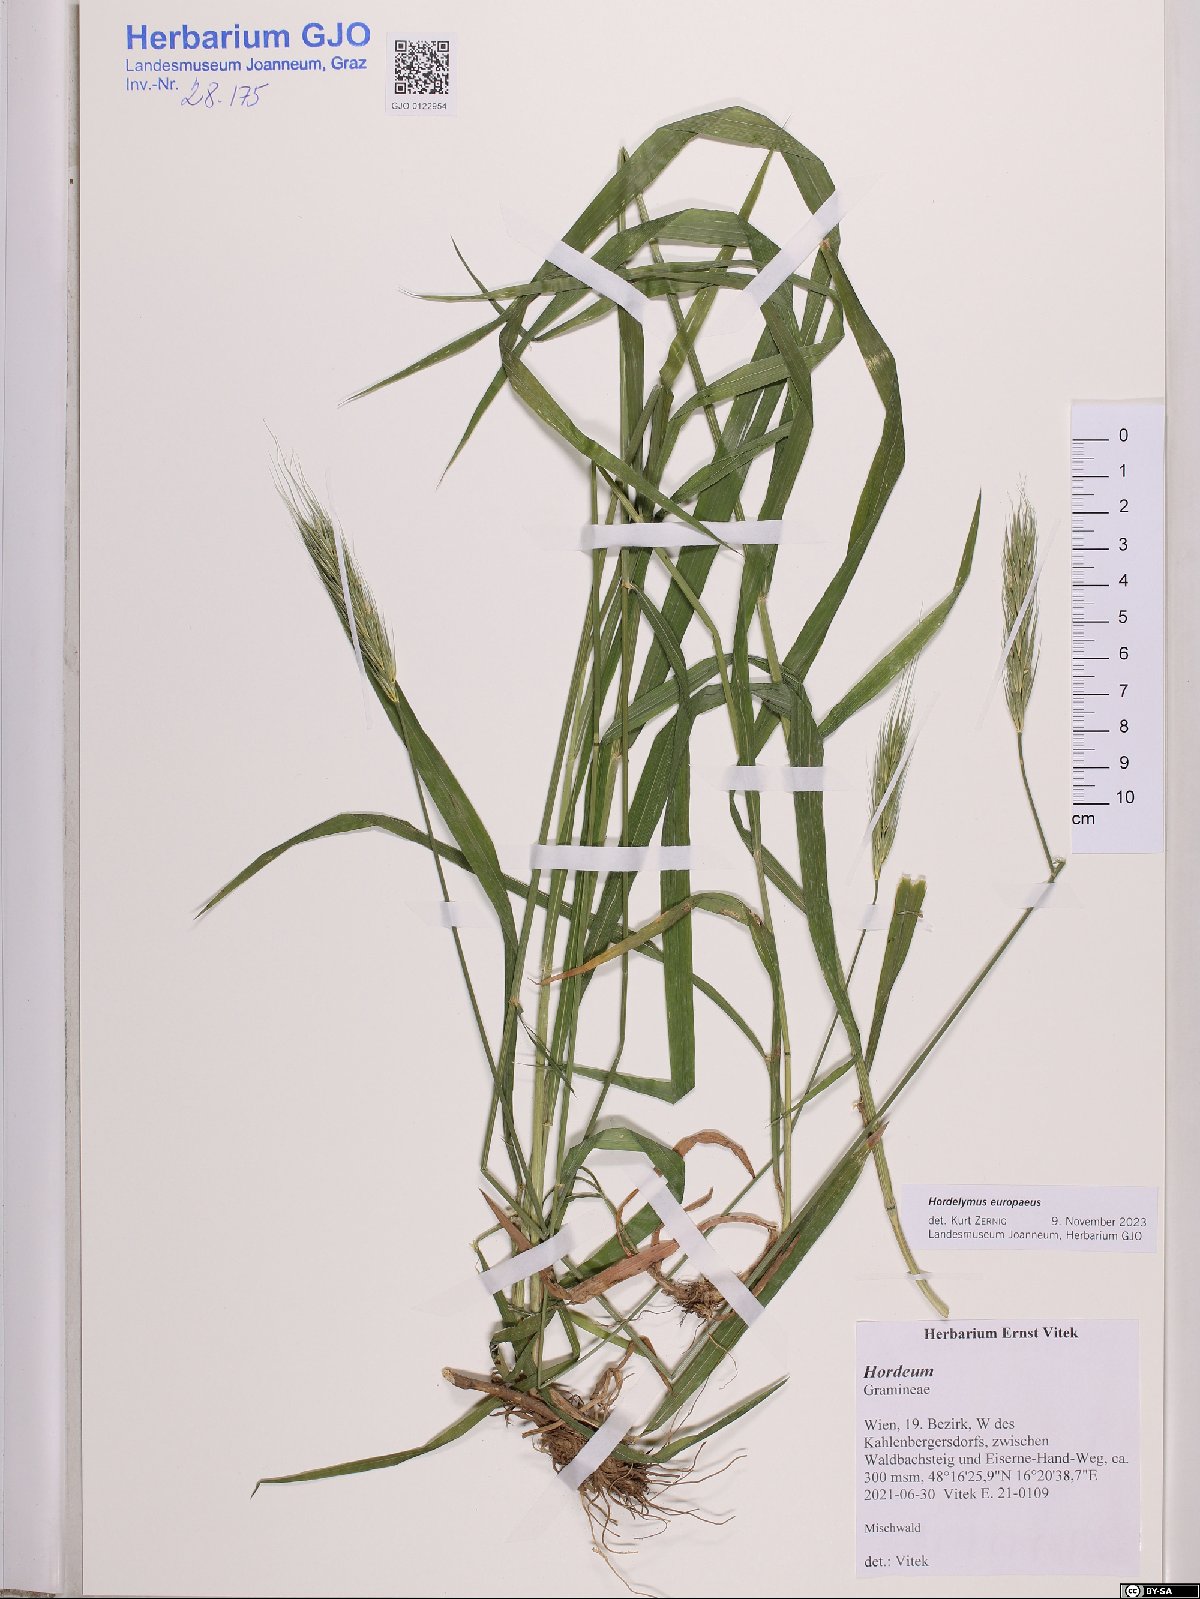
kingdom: Plantae
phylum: Tracheophyta
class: Liliopsida
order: Poales
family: Poaceae
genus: Hordelymus
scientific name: Hordelymus europaeus
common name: Wood-barley
